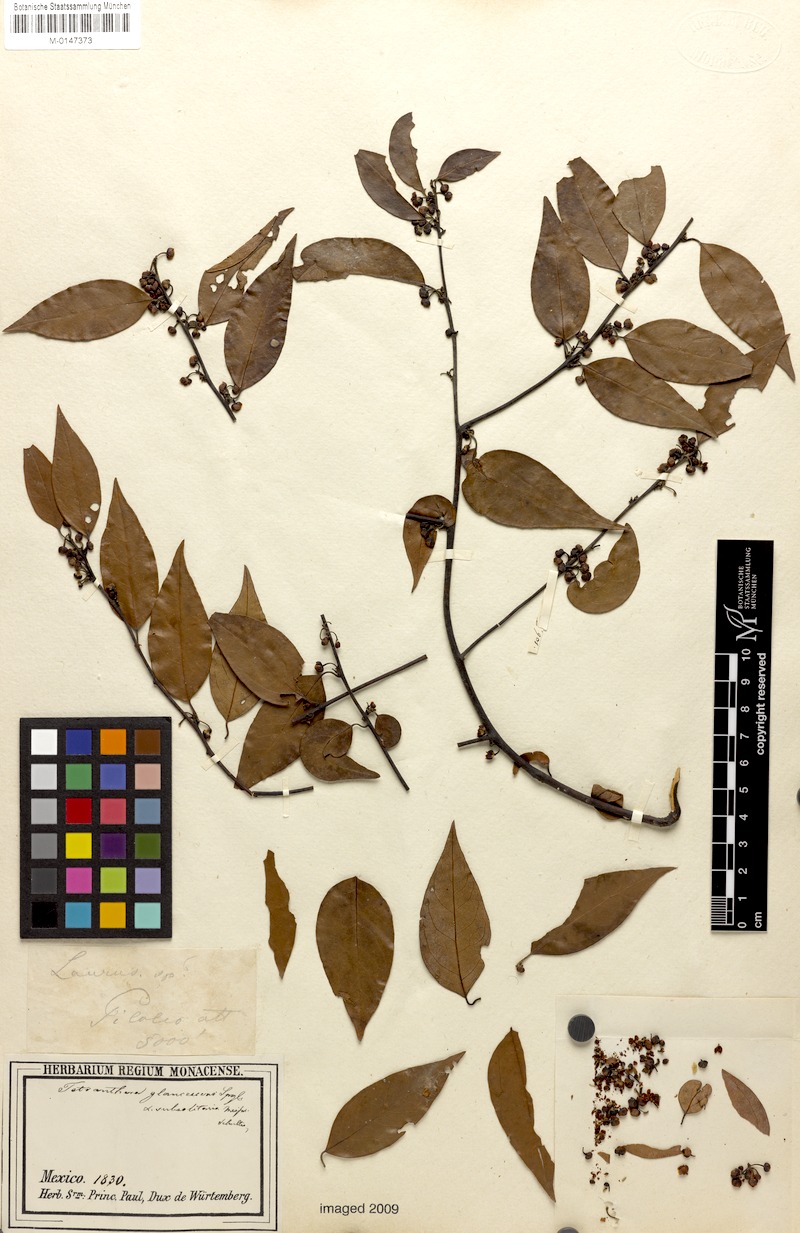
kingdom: Plantae
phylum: Tracheophyta
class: Magnoliopsida
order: Laurales
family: Lauraceae
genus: Licaria
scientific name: Licaria triandra
